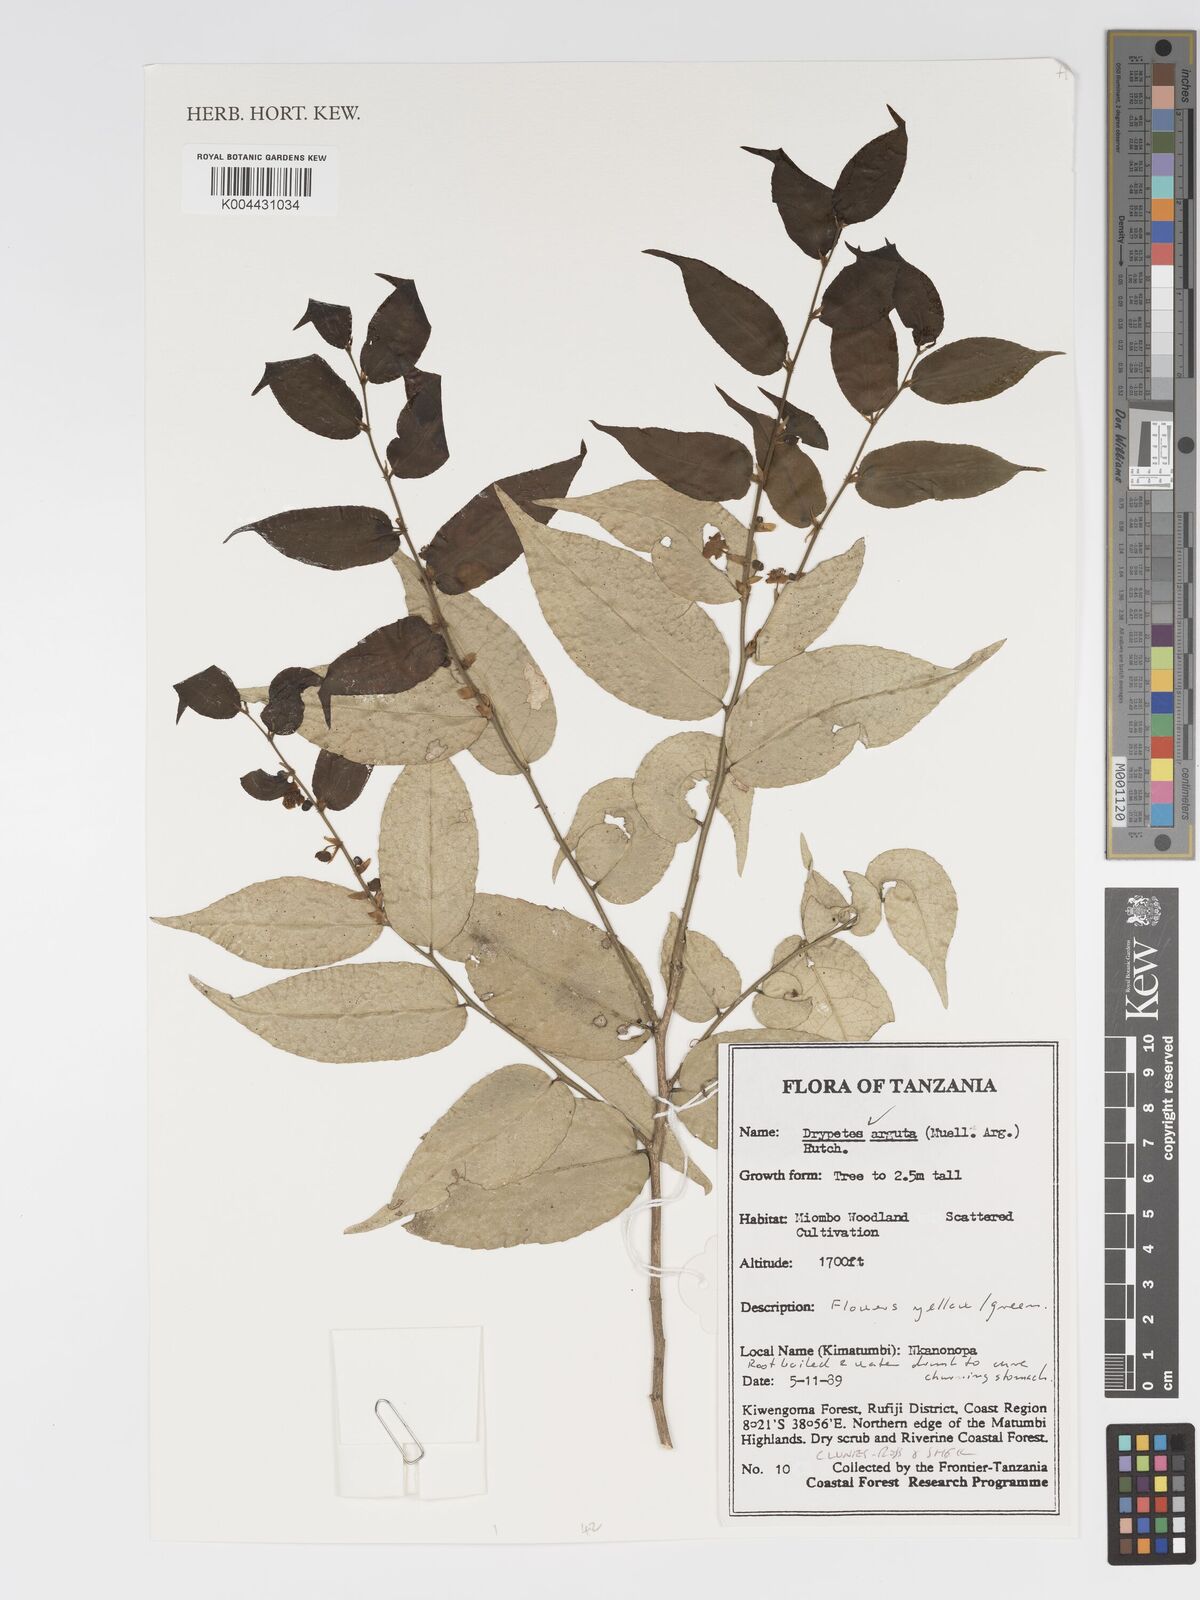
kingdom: Plantae
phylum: Tracheophyta
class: Magnoliopsida
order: Malpighiales
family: Putranjivaceae
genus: Drypetes
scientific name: Drypetes arguta
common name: Water ironplum
